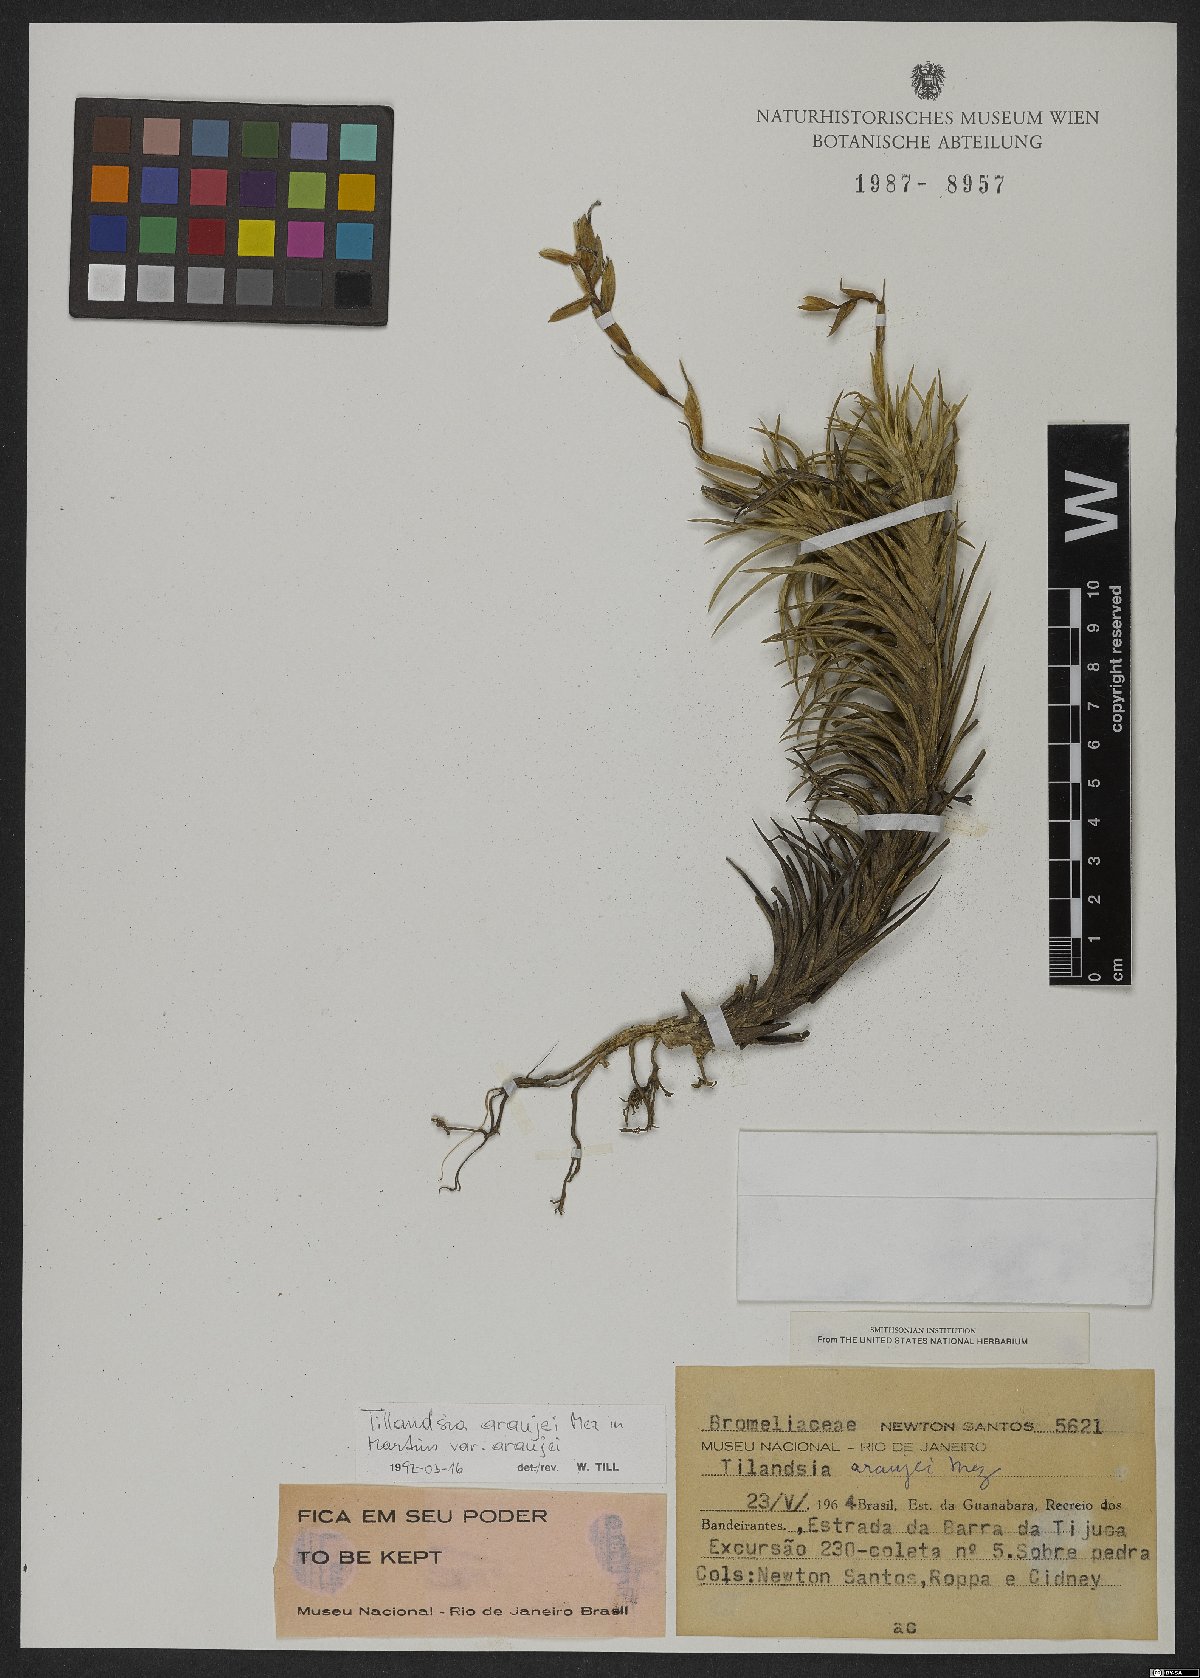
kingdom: Plantae
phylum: Tracheophyta
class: Liliopsida
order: Poales
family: Bromeliaceae
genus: Tillandsia
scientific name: Tillandsia araujei
